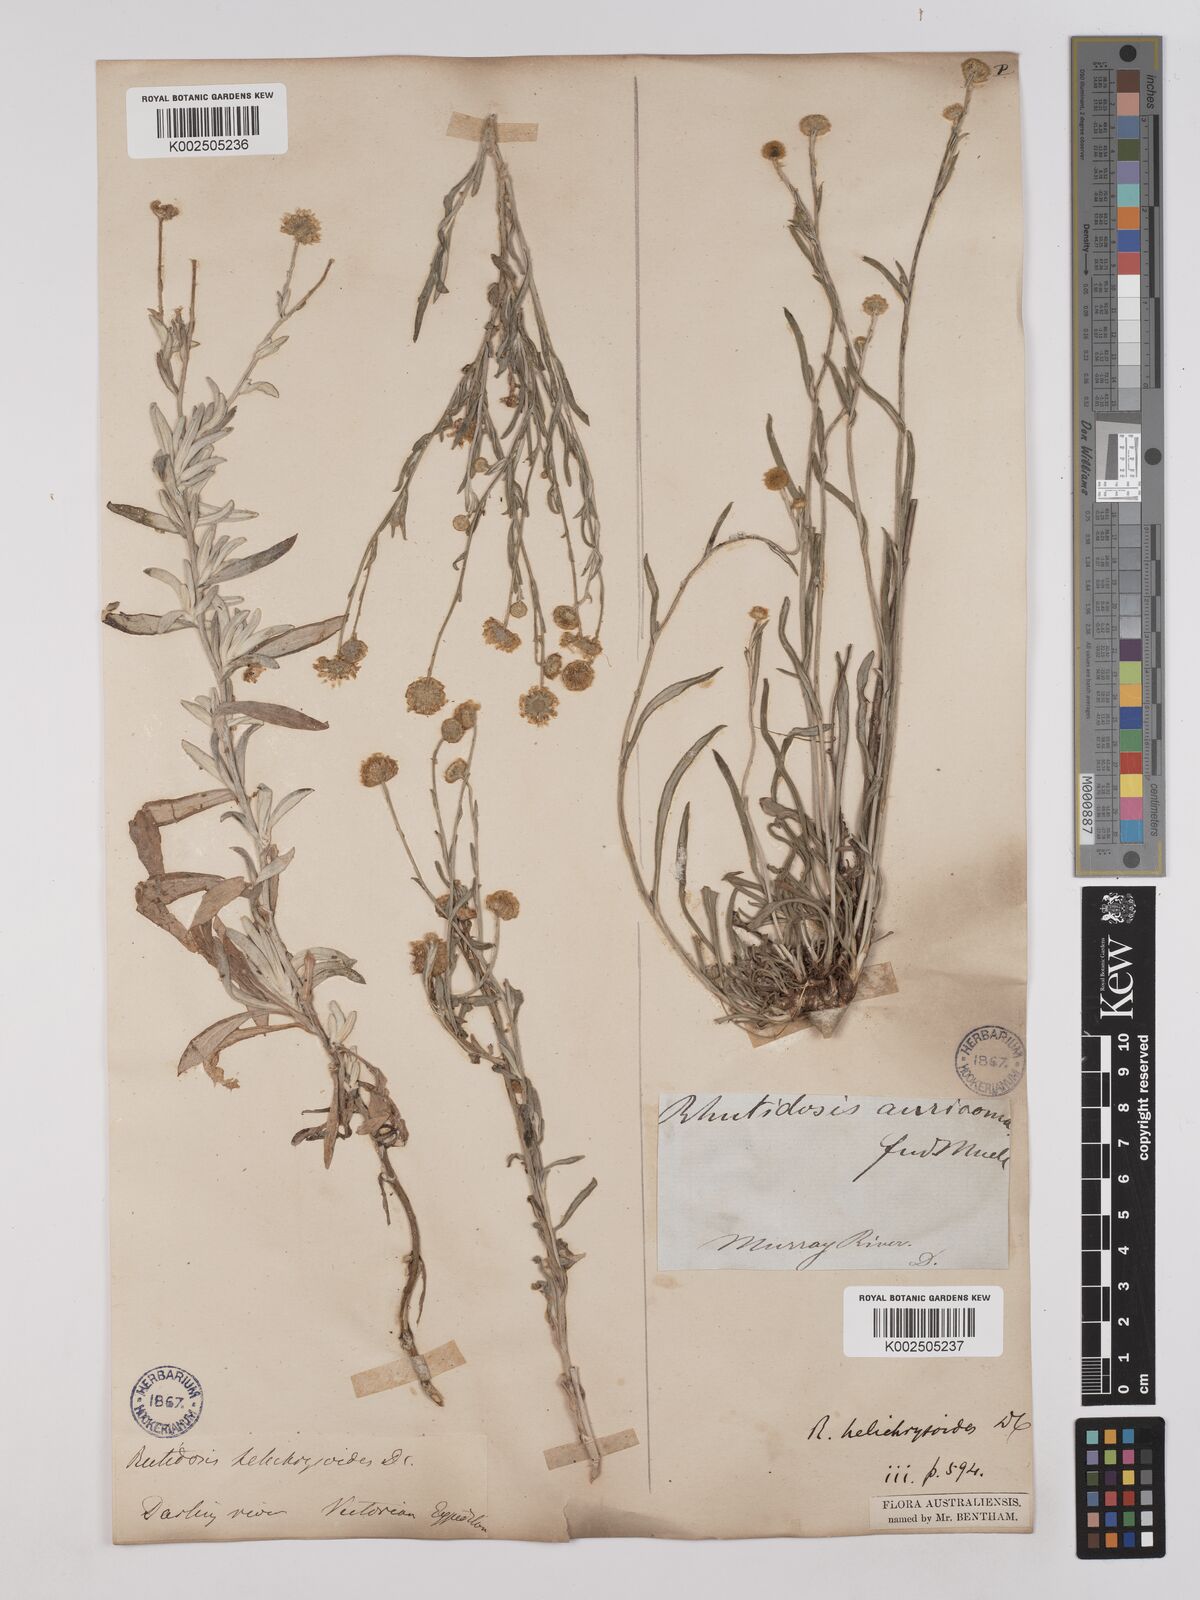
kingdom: Plantae
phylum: Tracheophyta
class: Magnoliopsida
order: Asterales
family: Asteraceae
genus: Rutidosis
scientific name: Rutidosis helichrysoides
